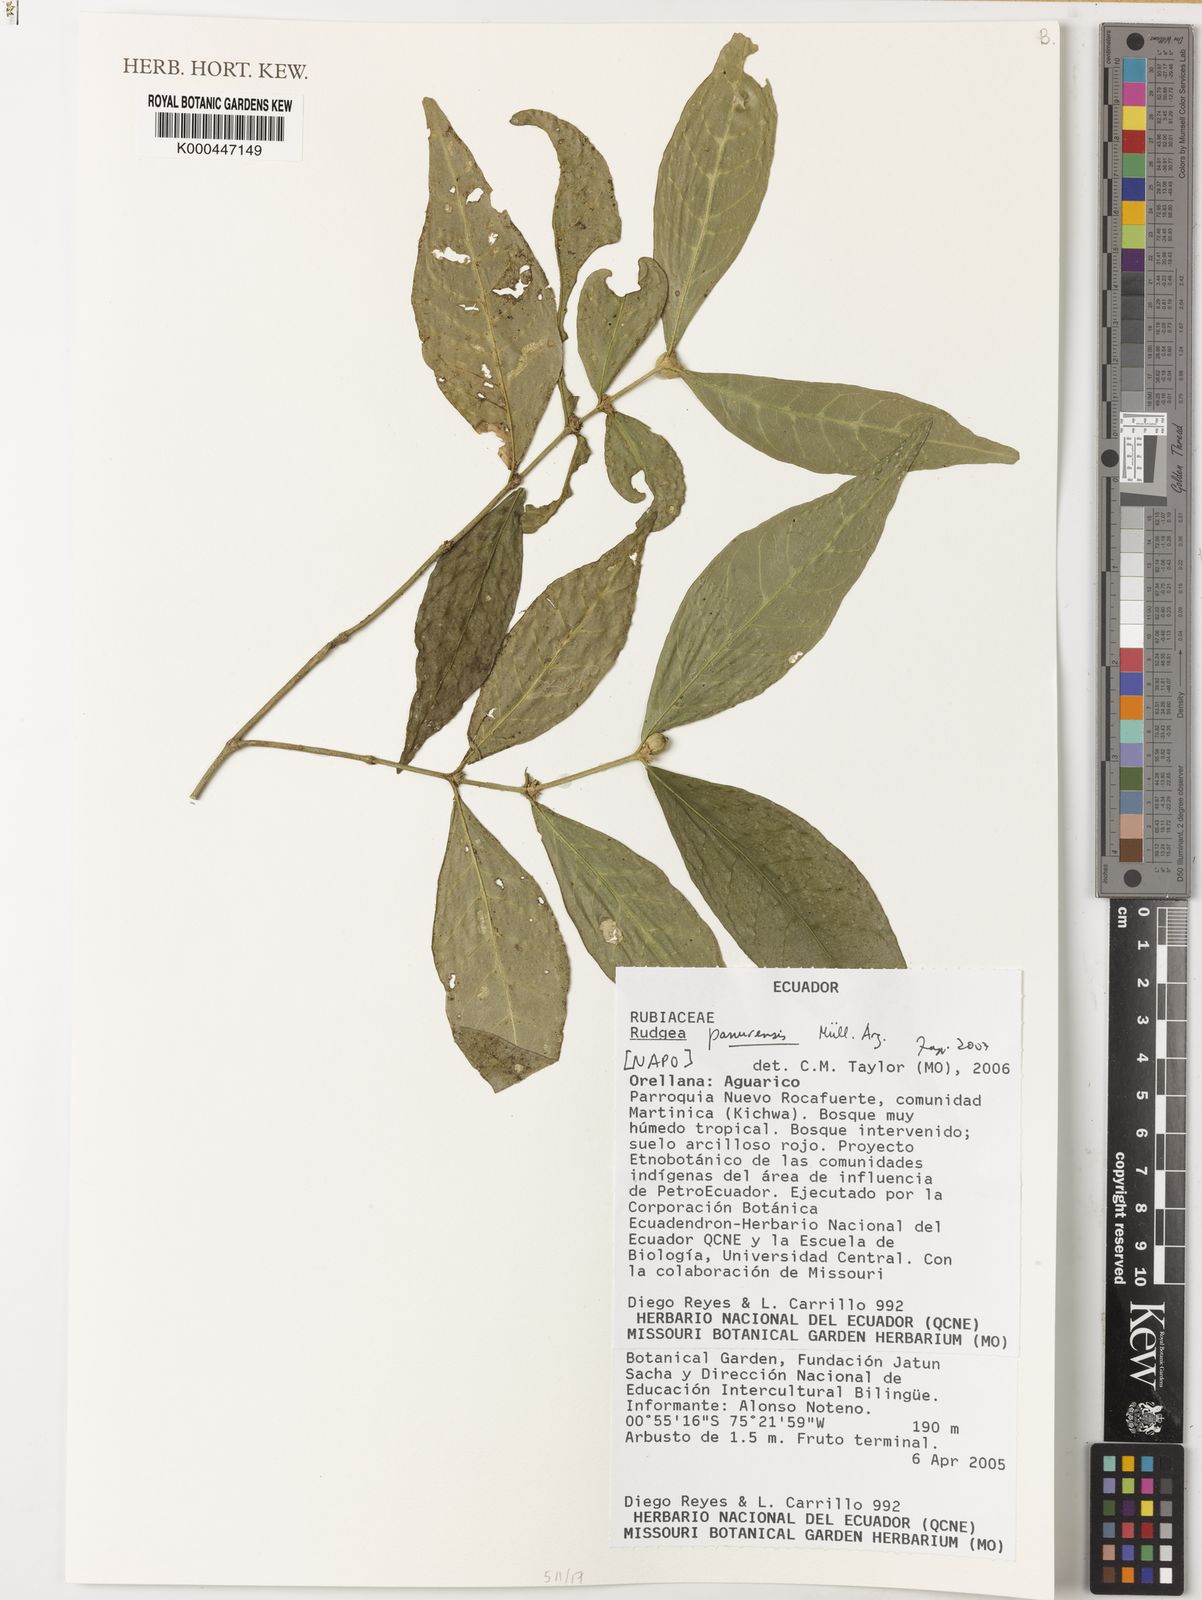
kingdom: Plantae
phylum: Tracheophyta
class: Magnoliopsida
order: Gentianales
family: Rubiaceae
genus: Rudgea
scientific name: Rudgea panurensis
